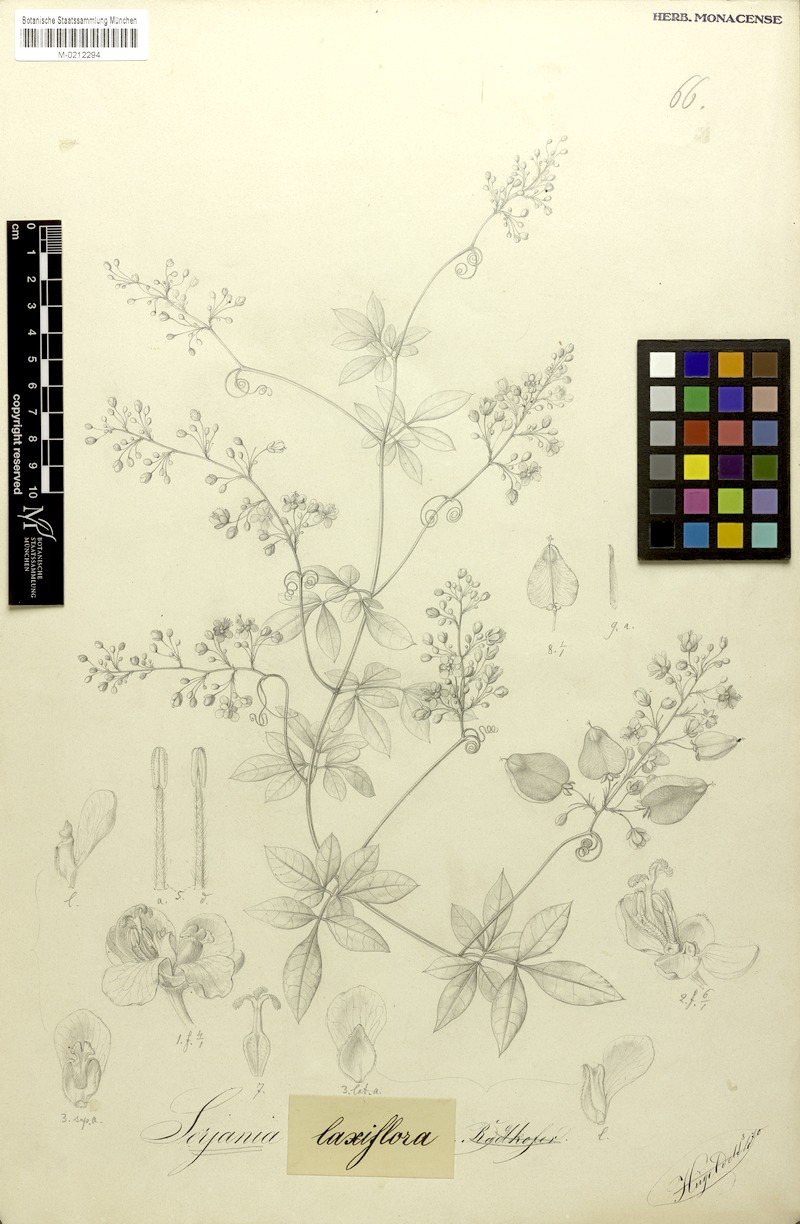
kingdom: Plantae
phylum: Tracheophyta
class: Magnoliopsida
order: Sapindales
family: Sapindaceae
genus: Serjania
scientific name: Serjania laxiflora
